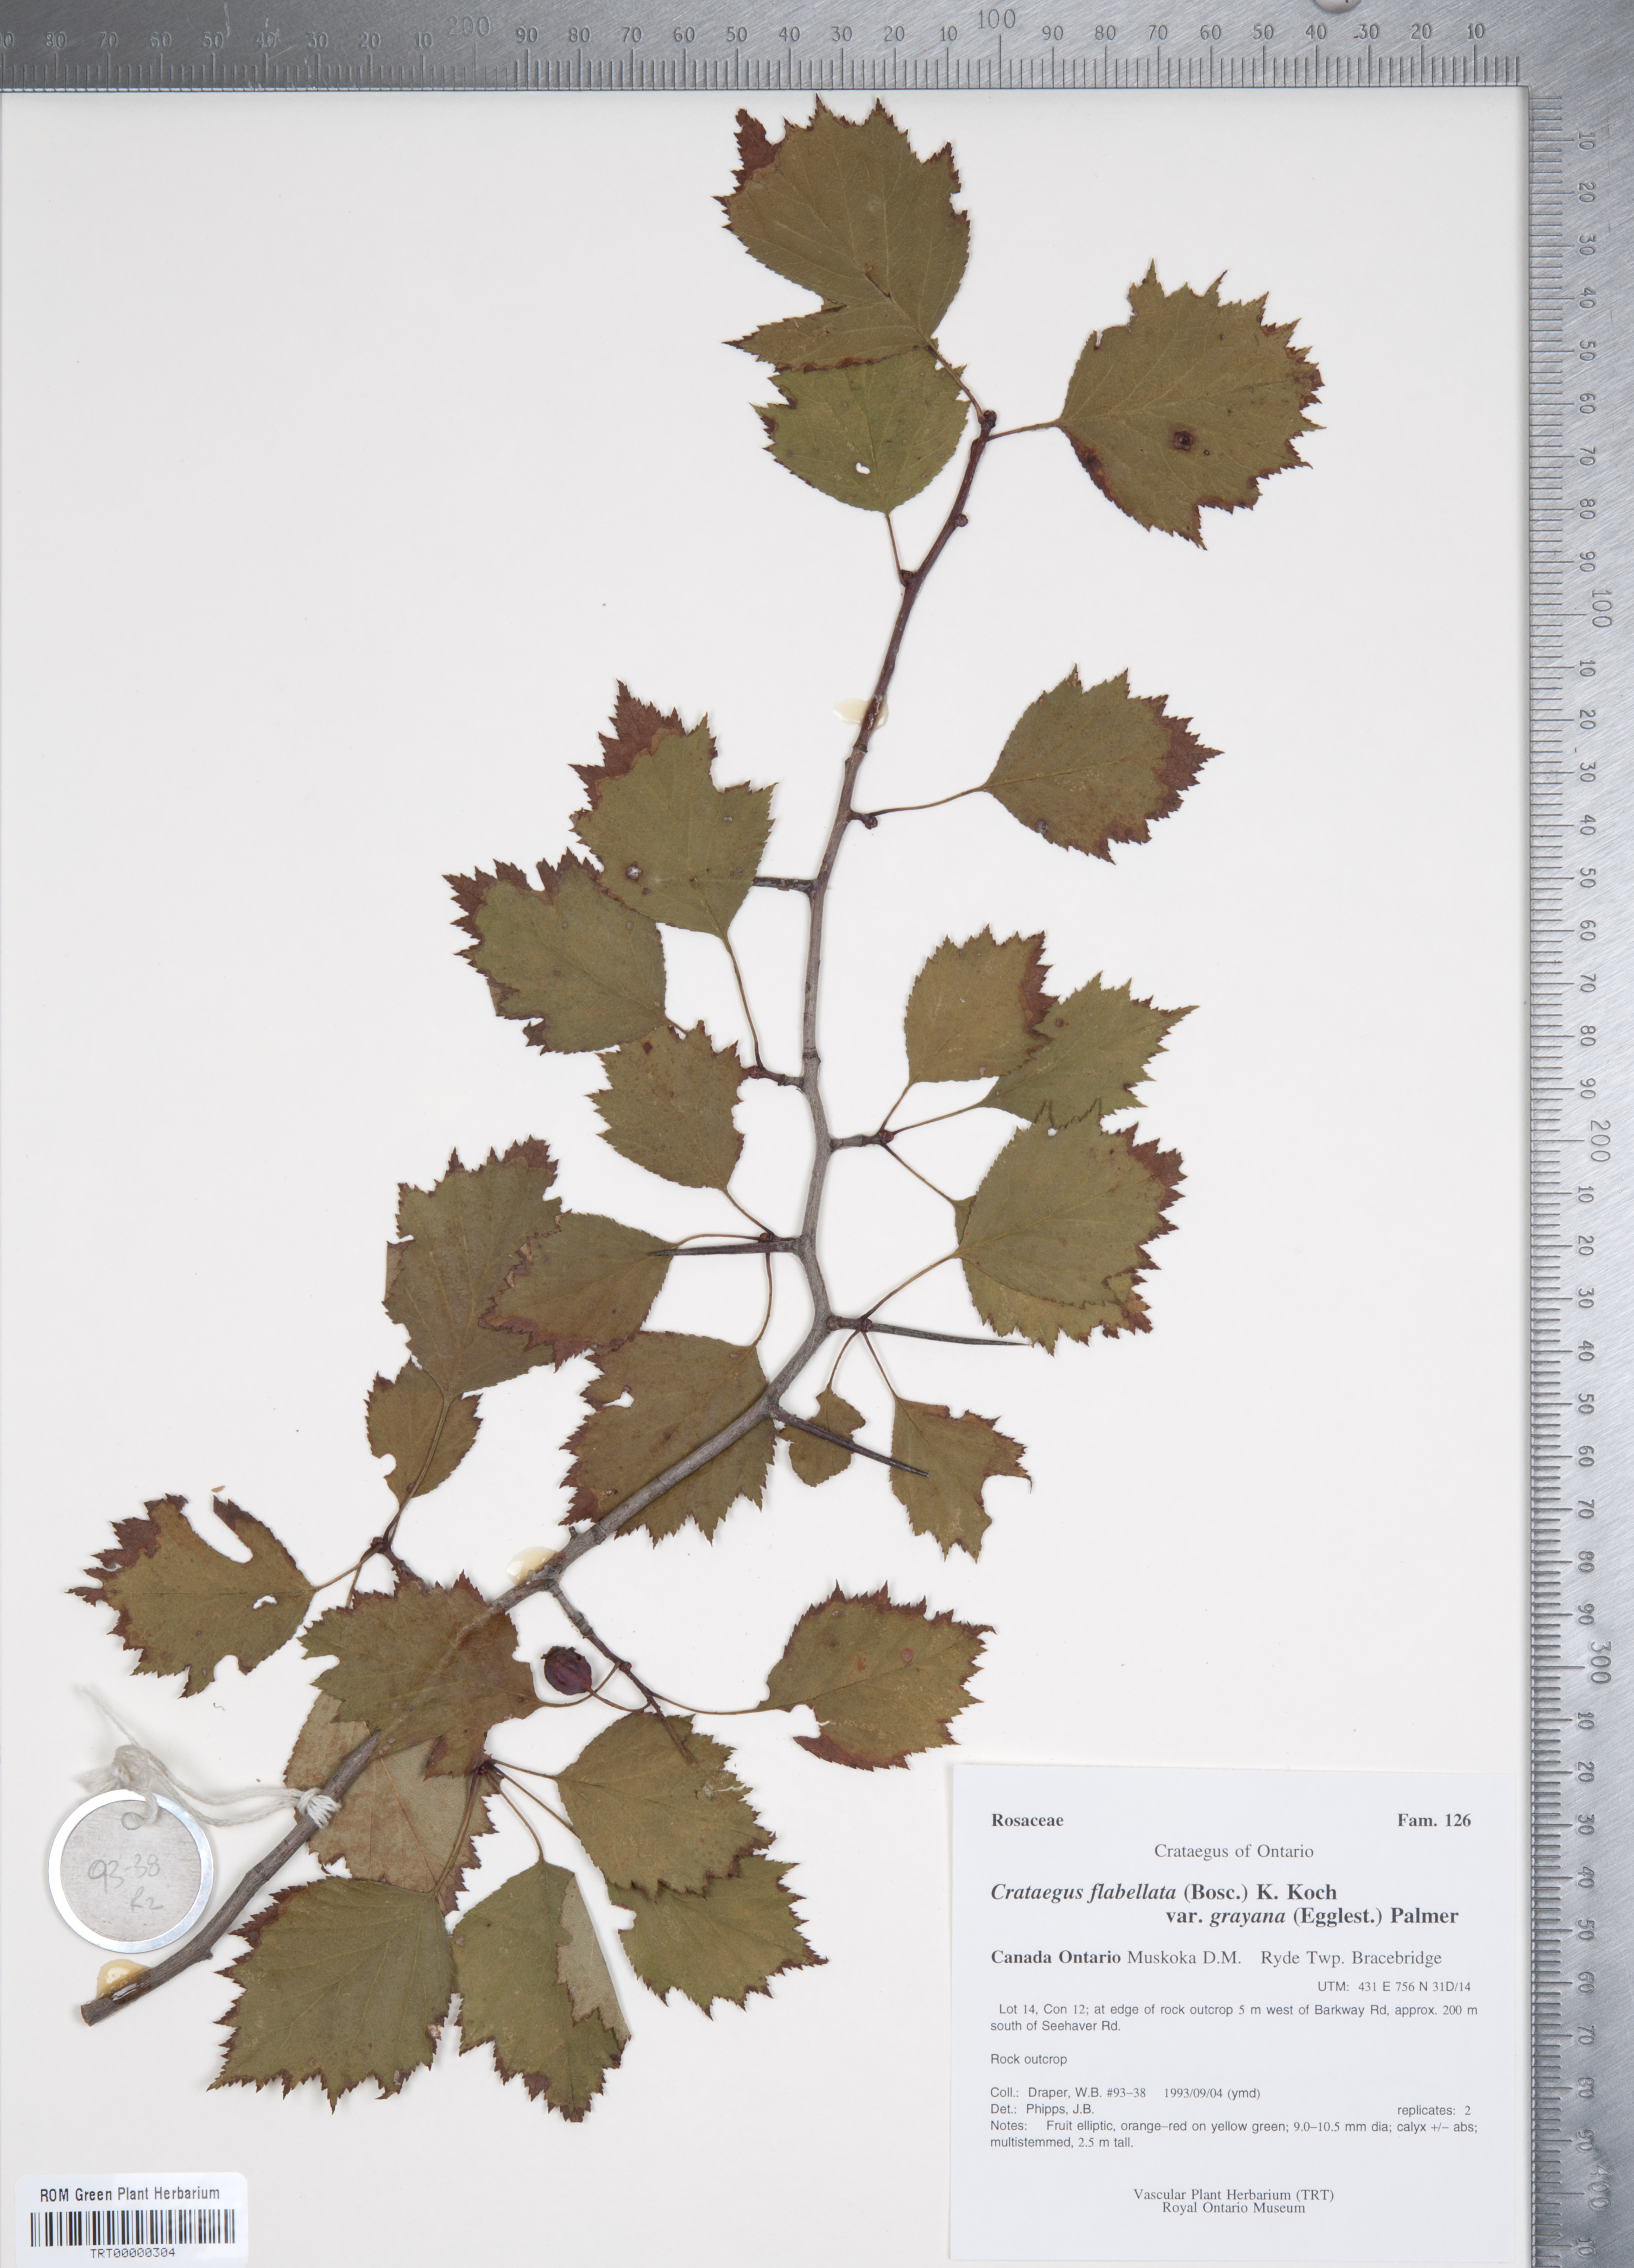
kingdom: Plantae
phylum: Tracheophyta
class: Magnoliopsida
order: Rosales
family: Rosaceae
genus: Crataegus
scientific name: Crataegus flabellata
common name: Bosc's hawthorn
